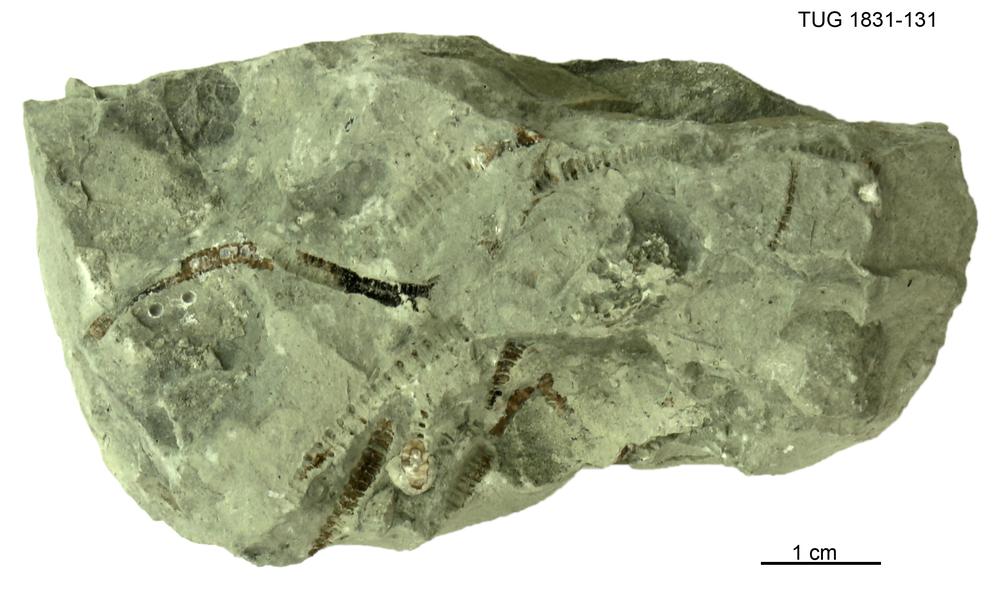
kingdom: Animalia
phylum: Echinodermata
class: Crinoidea
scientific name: Crinoidea
